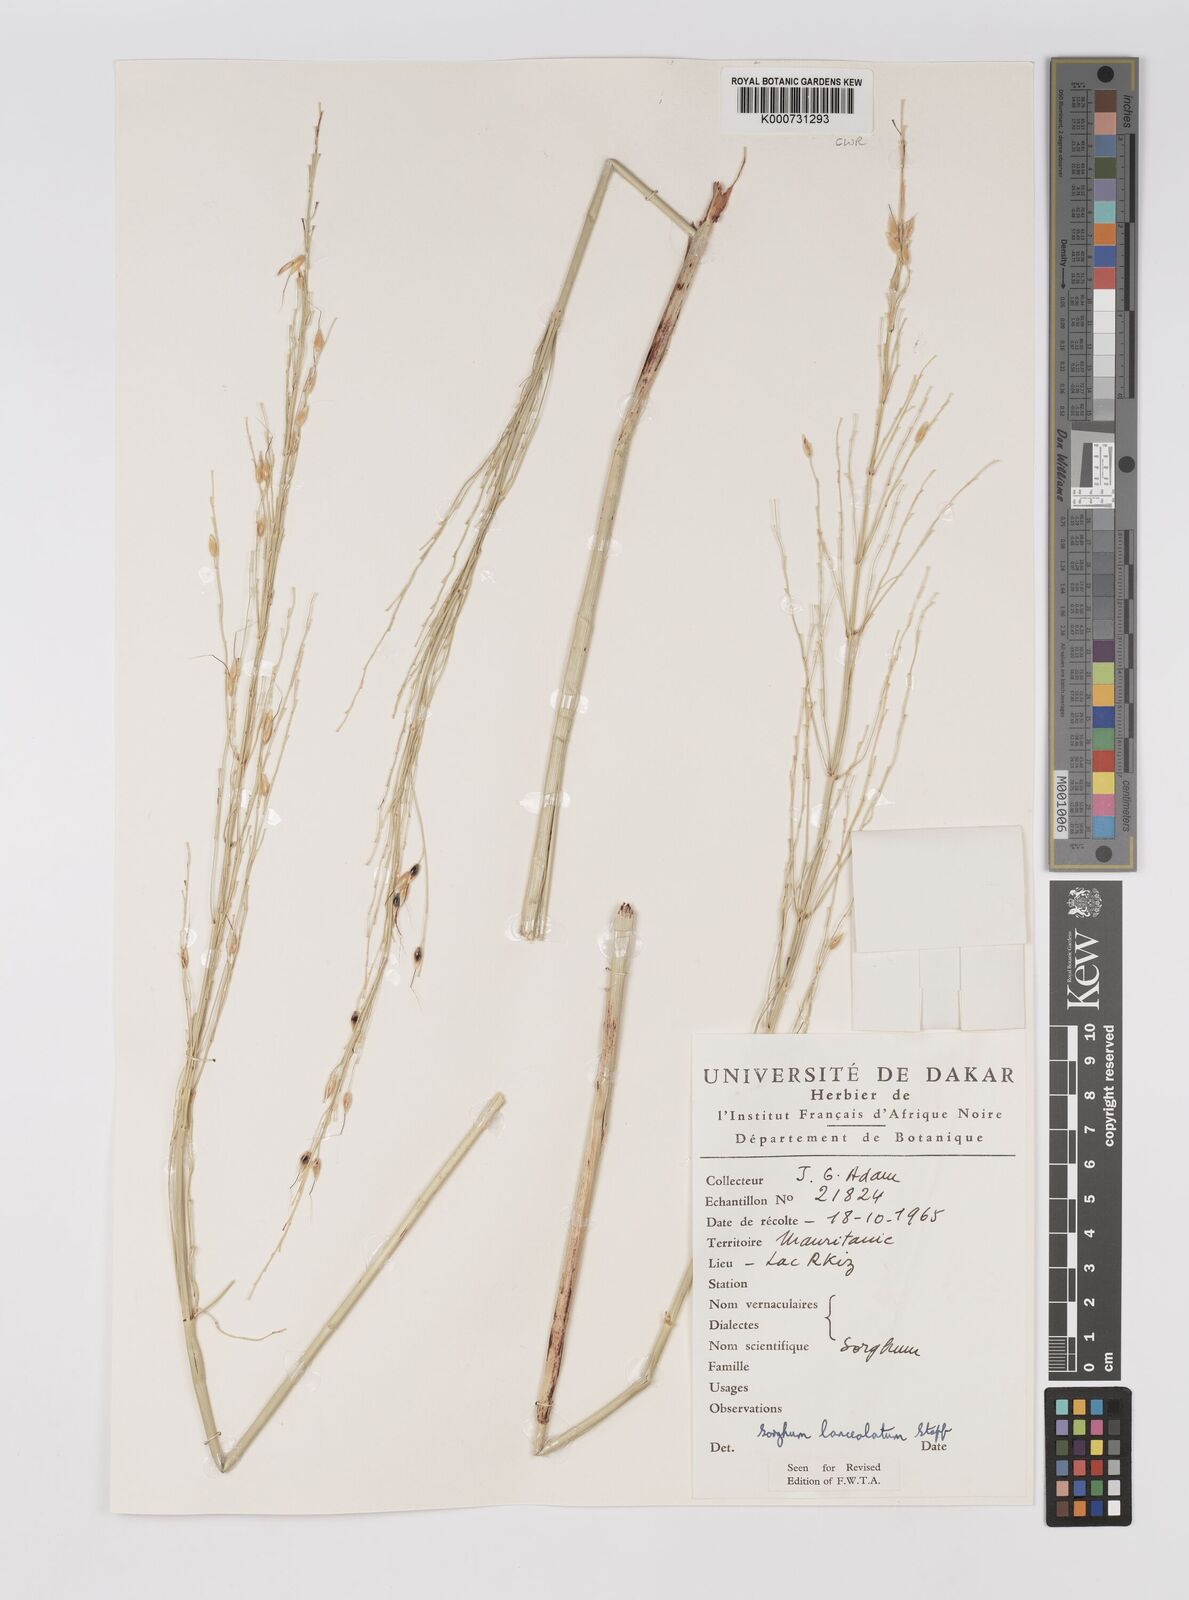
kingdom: Plantae
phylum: Tracheophyta
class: Liliopsida
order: Poales
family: Poaceae
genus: Sorghum
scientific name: Sorghum arundinaceum
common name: Sorghum
